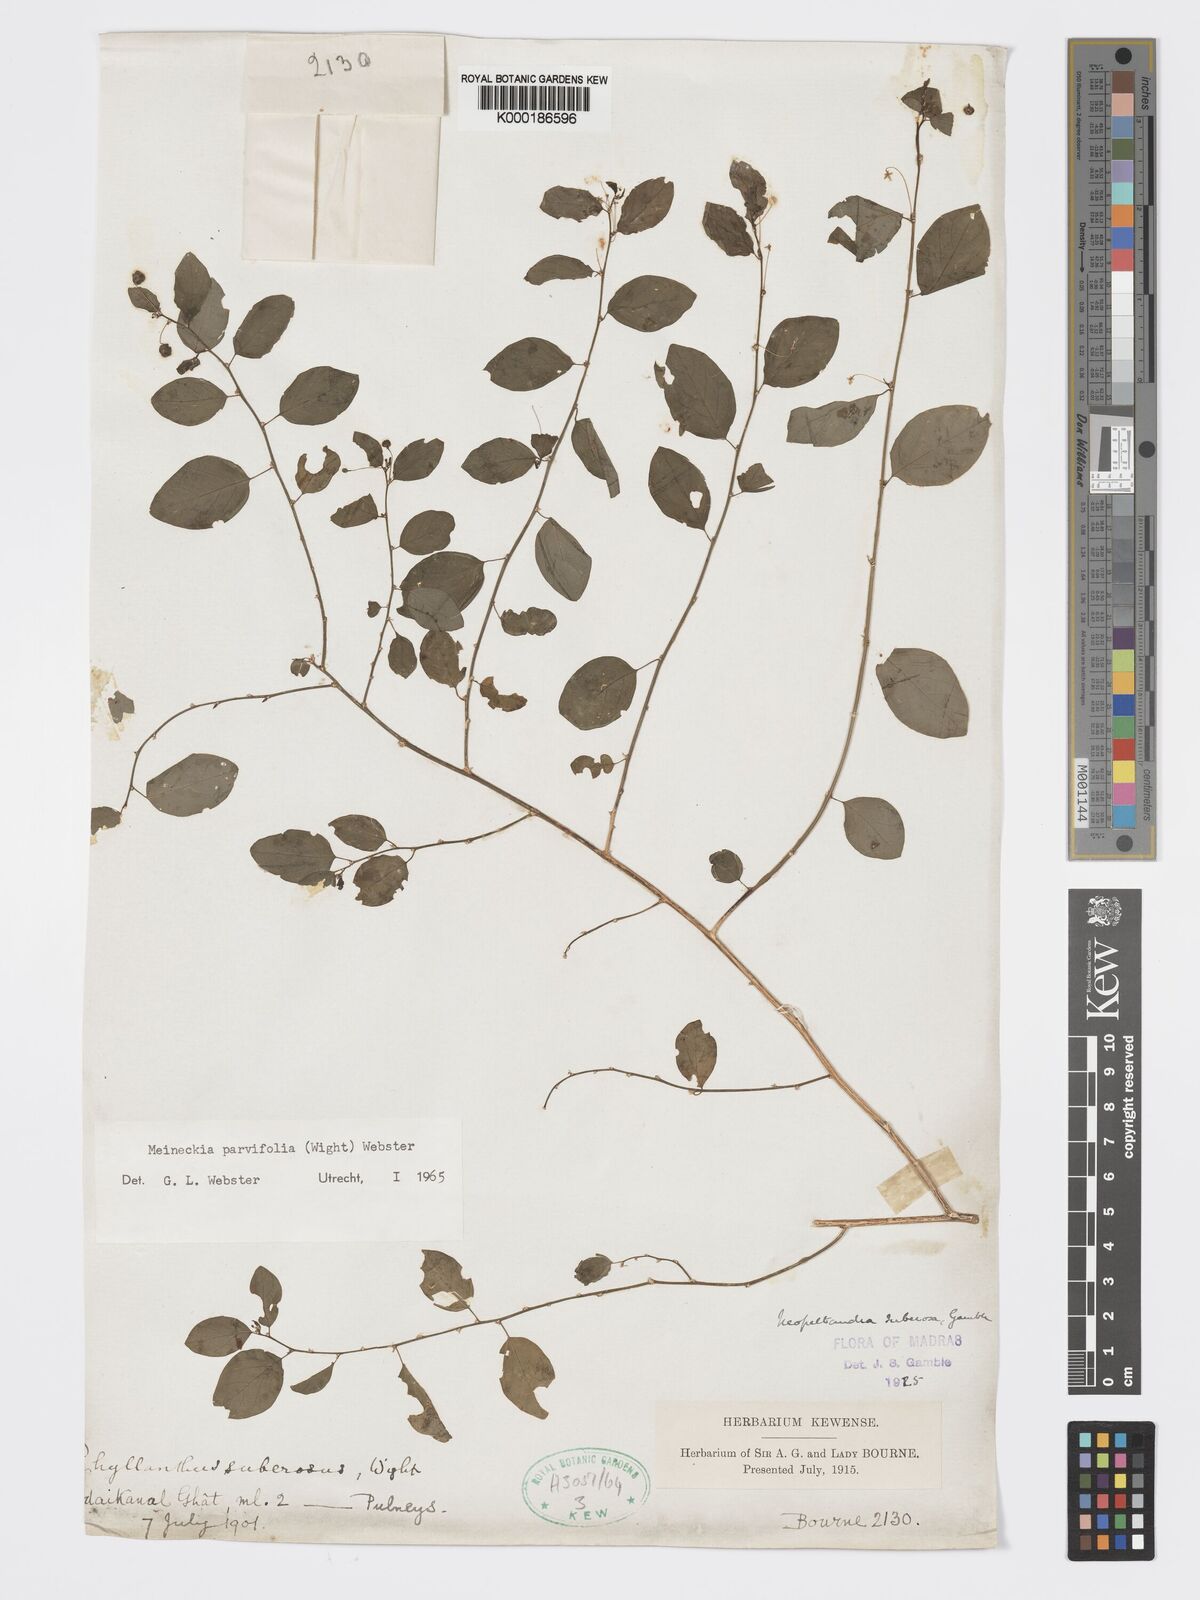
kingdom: Plantae
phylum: Tracheophyta
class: Magnoliopsida
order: Malpighiales
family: Phyllanthaceae
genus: Meineckia
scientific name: Meineckia parvifolia
